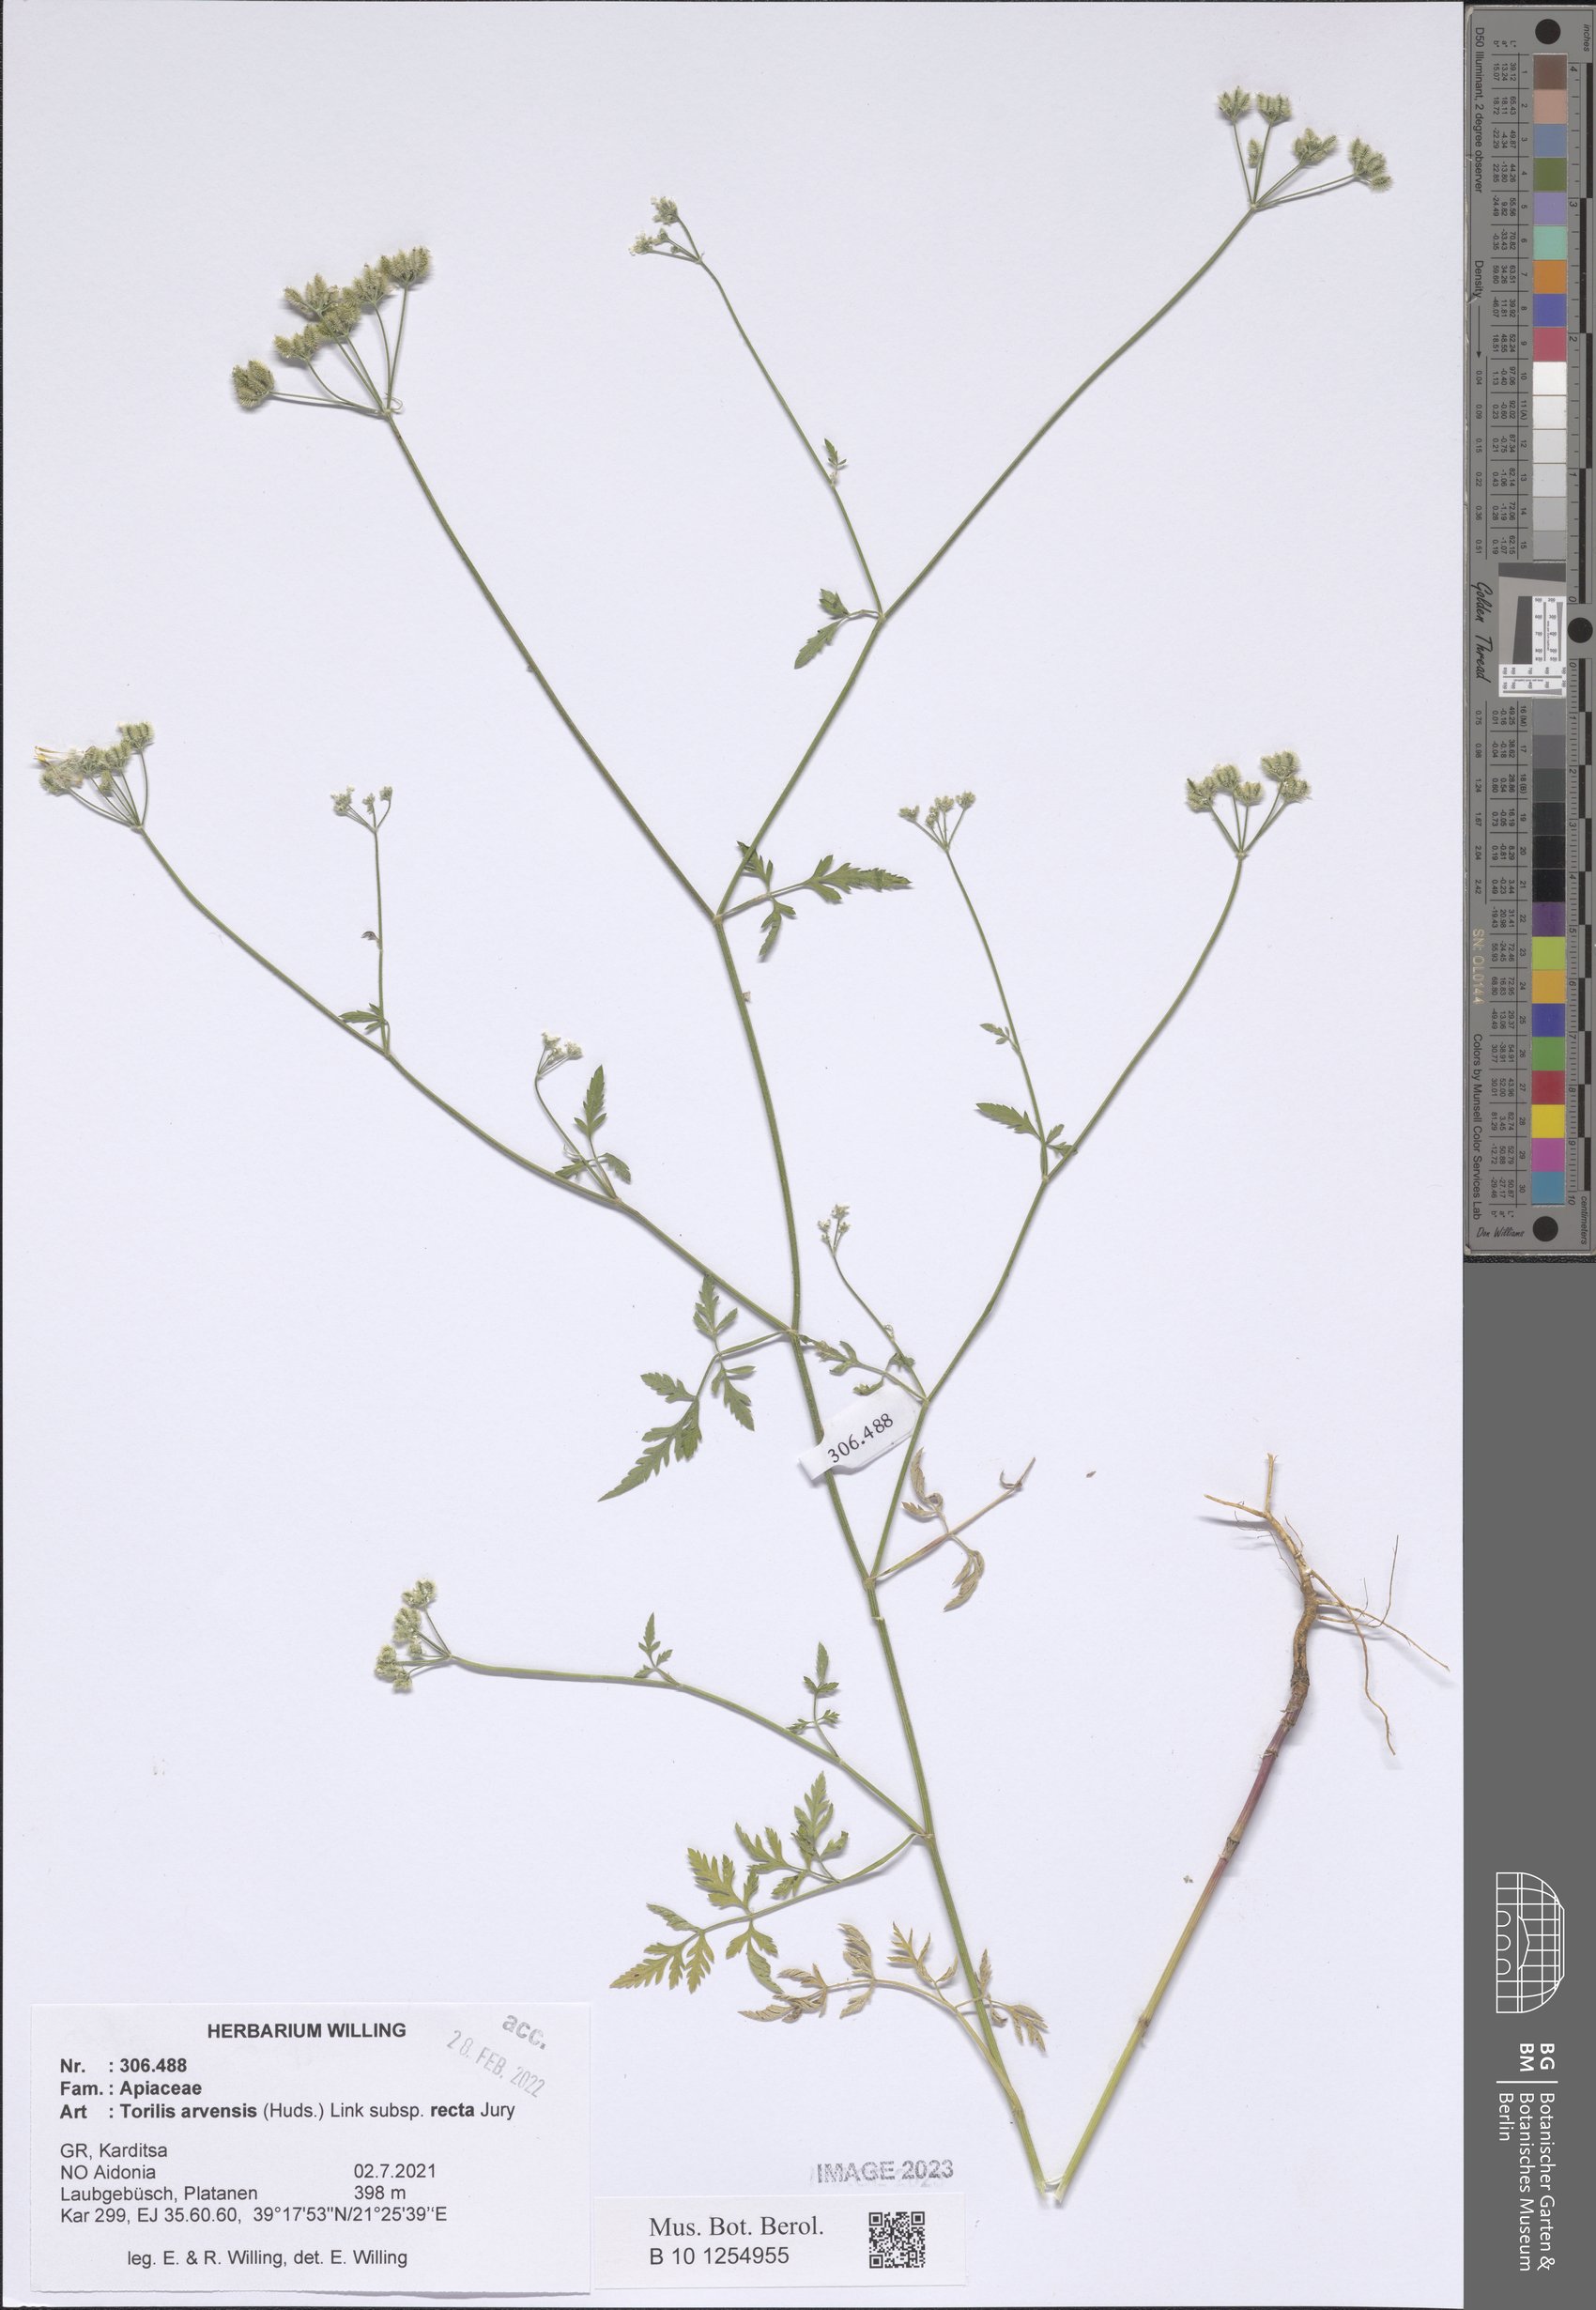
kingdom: Plantae
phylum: Tracheophyta
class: Magnoliopsida
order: Apiales
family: Apiaceae
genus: Torilis
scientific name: Torilis arvensis
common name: Spreading hedge-parsley
